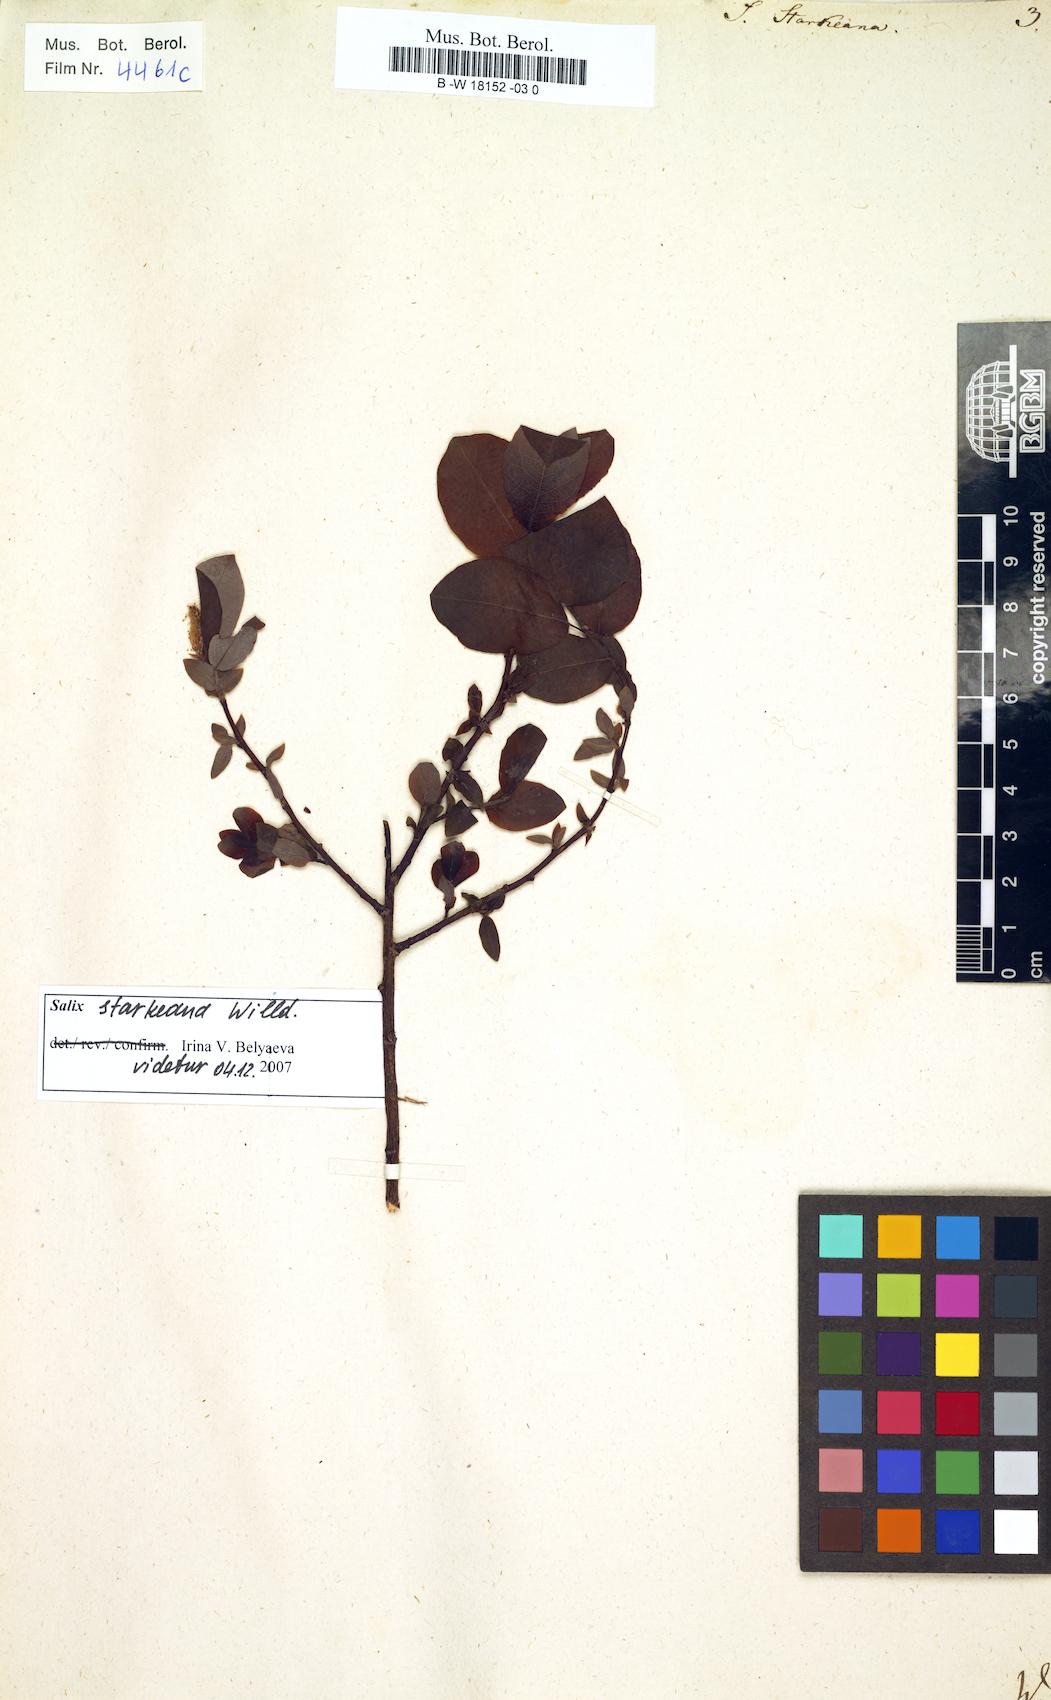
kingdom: Plantae
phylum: Tracheophyta
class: Magnoliopsida
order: Malpighiales
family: Salicaceae
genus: Salix
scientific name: Salix starkeana
